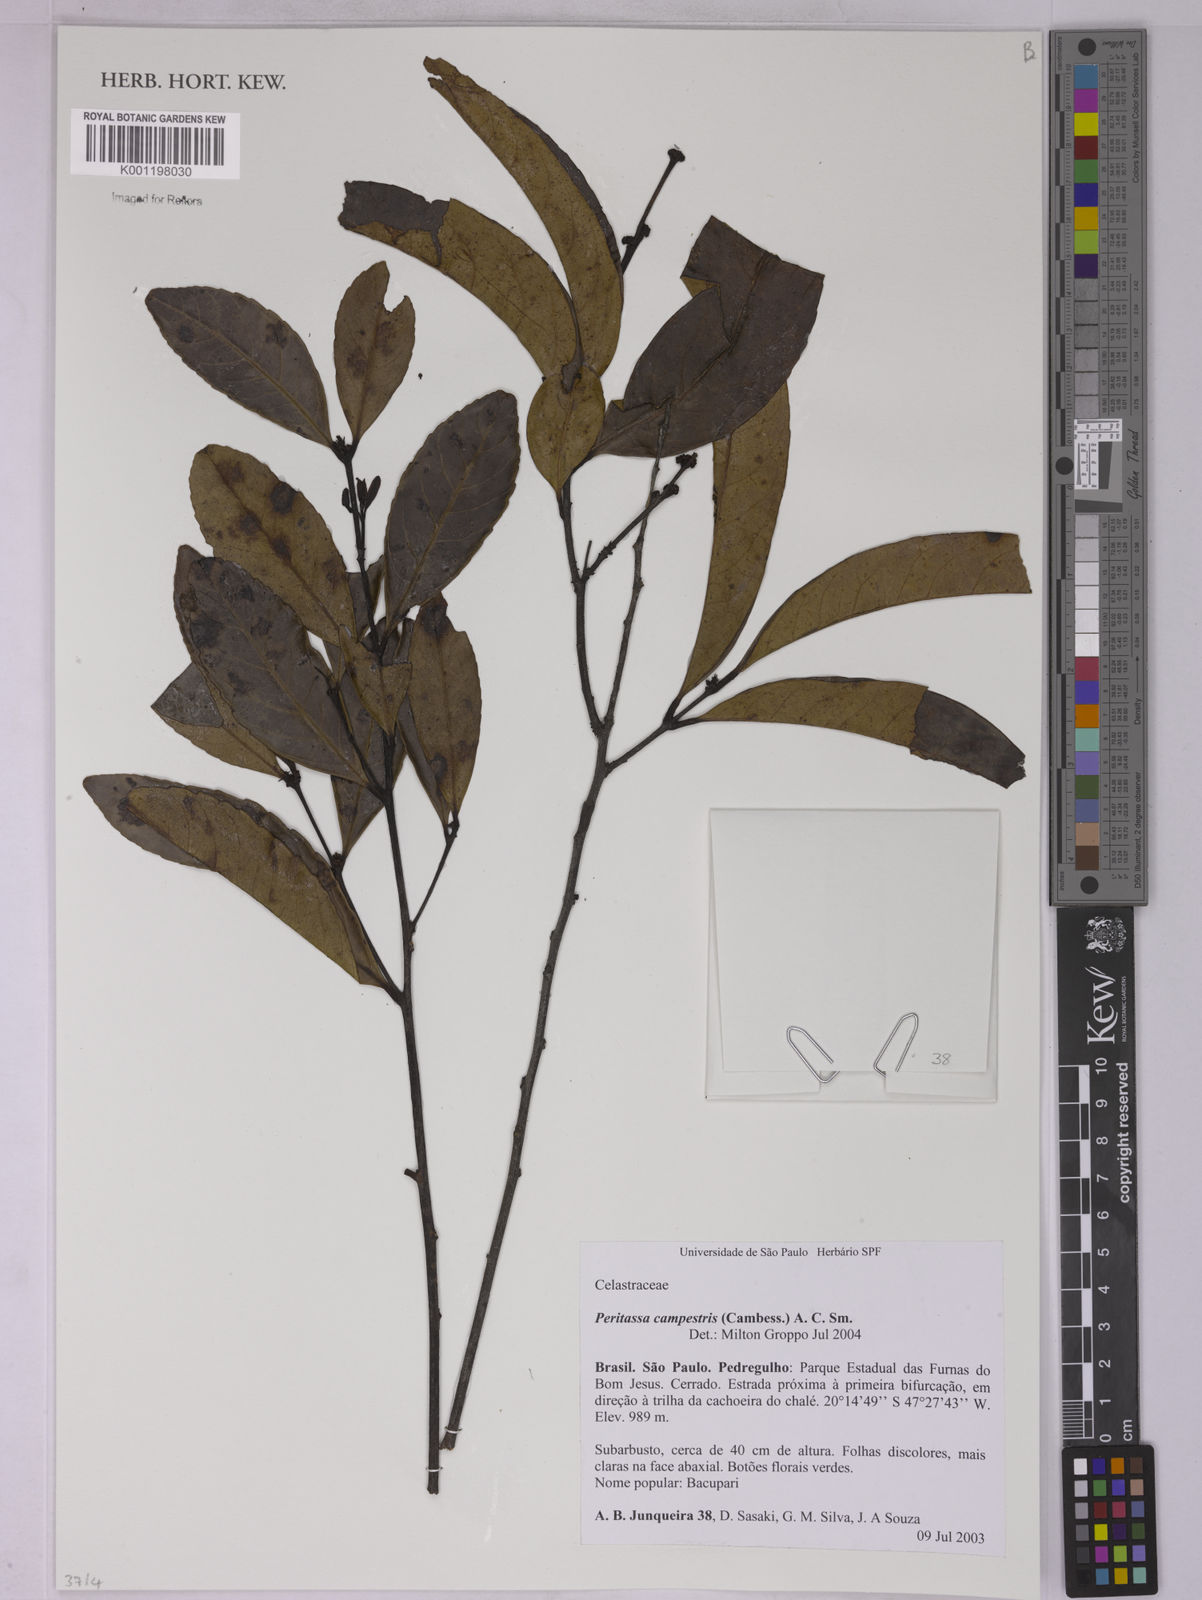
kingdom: Plantae
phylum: Tracheophyta
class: Magnoliopsida
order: Celastrales
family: Celastraceae
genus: Peritassa
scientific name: Peritassa campestris
